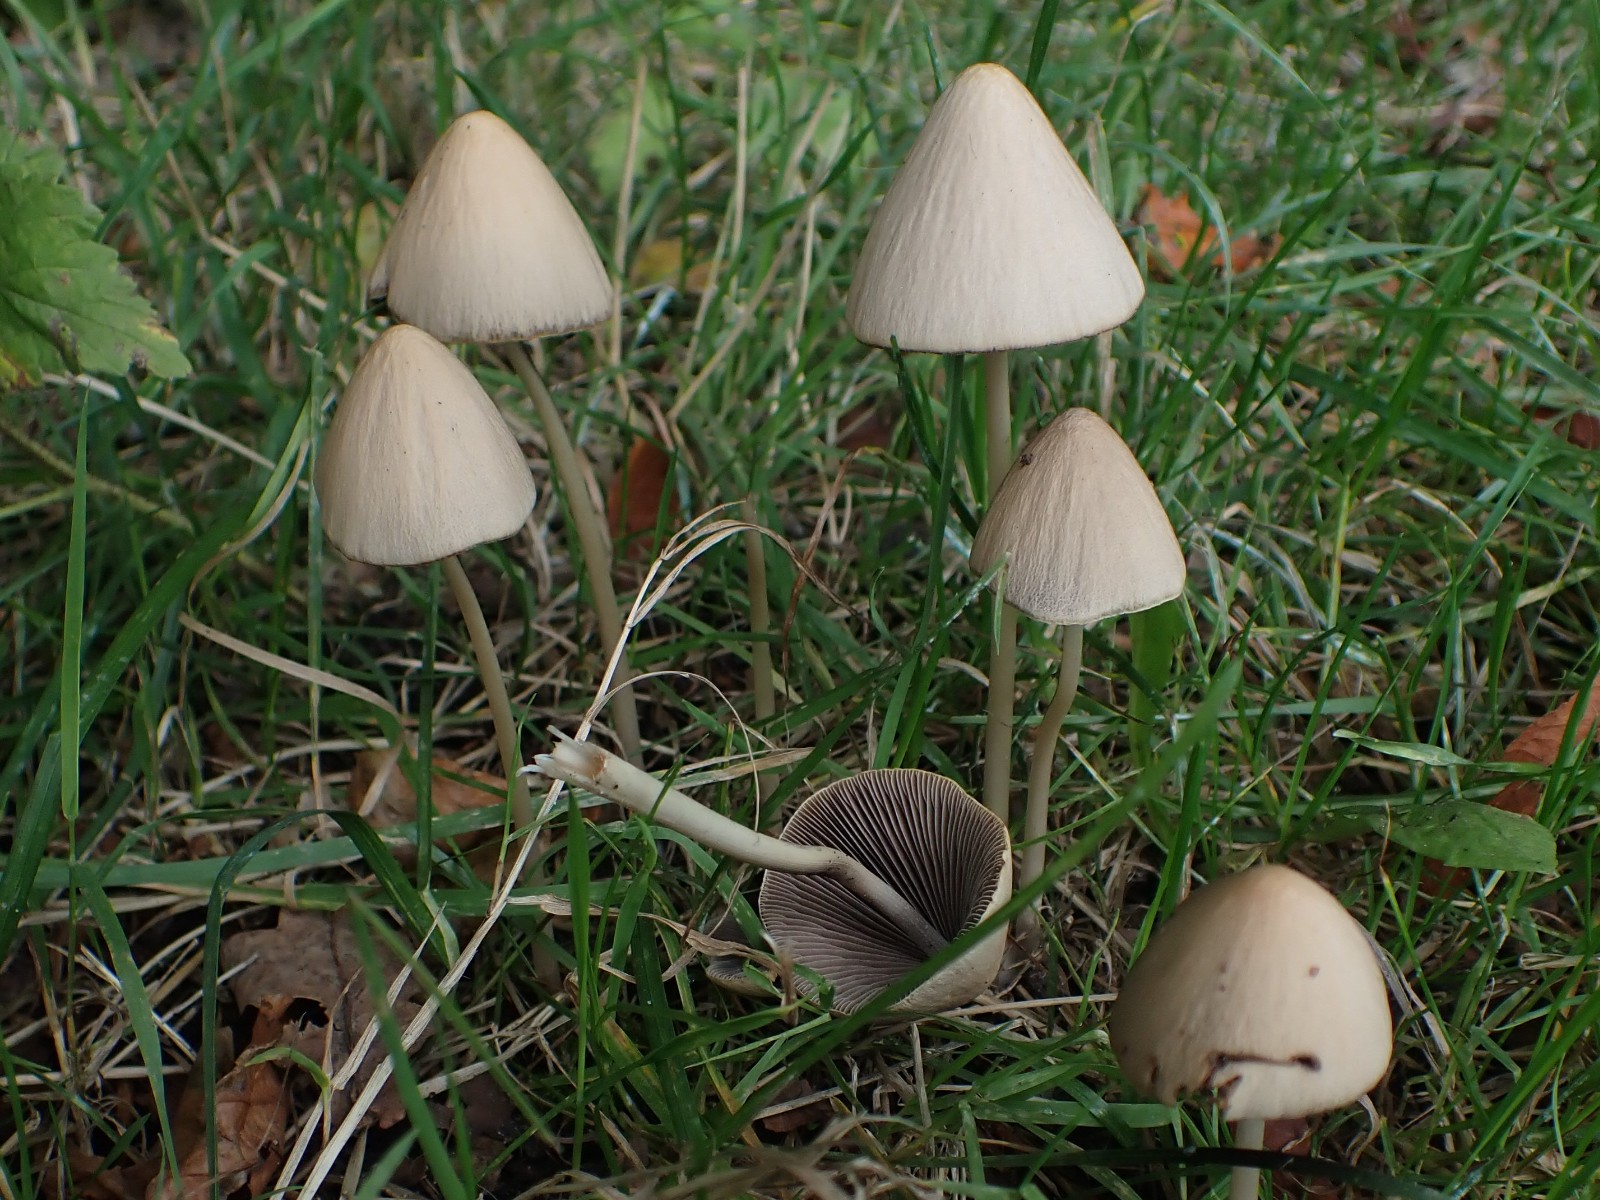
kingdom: Fungi
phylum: Basidiomycota
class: Agaricomycetes
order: Agaricales
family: Psathyrellaceae
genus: Parasola
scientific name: Parasola conopilea
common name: kegle-hjulhat
